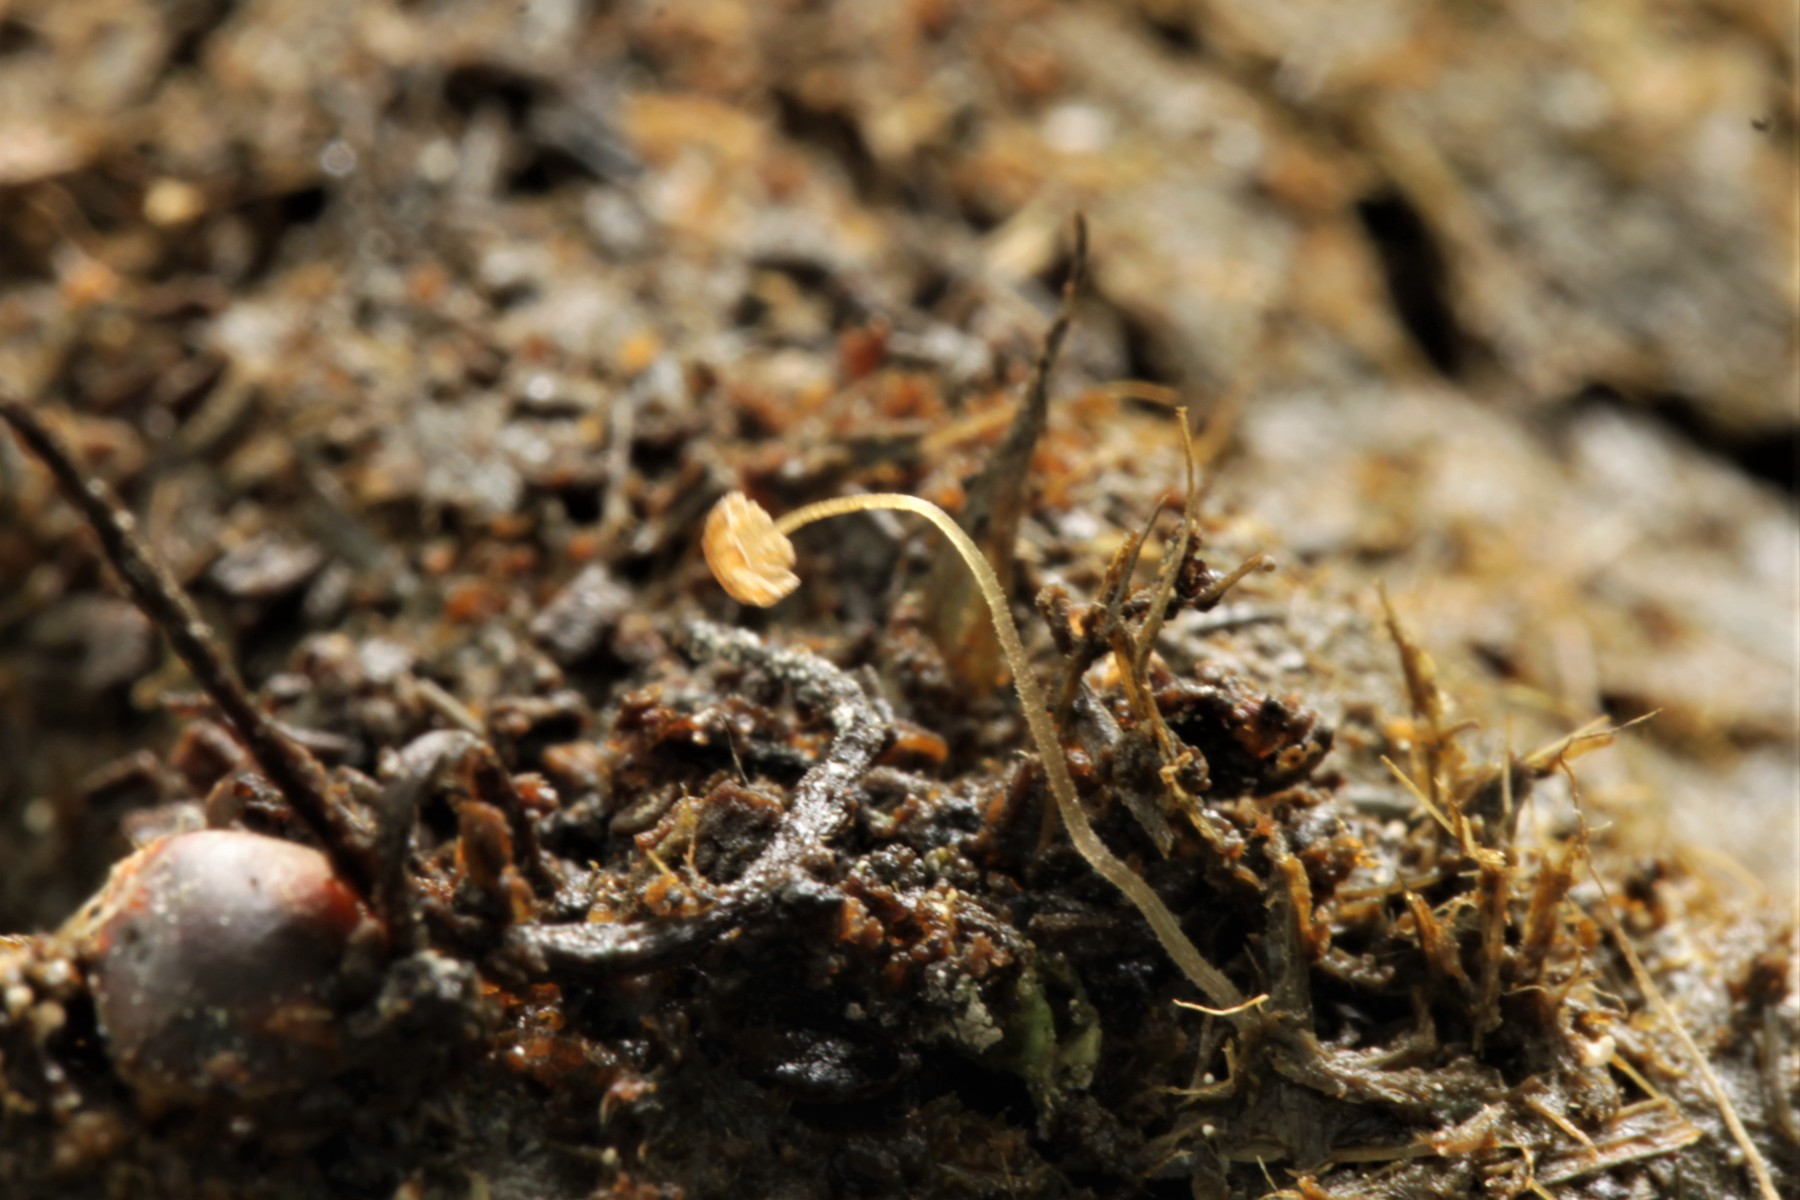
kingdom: Fungi
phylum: Basidiomycota
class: Agaricomycetes
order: Agaricales
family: Psathyrellaceae
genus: Coprinellus
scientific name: Coprinellus
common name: blækhat
